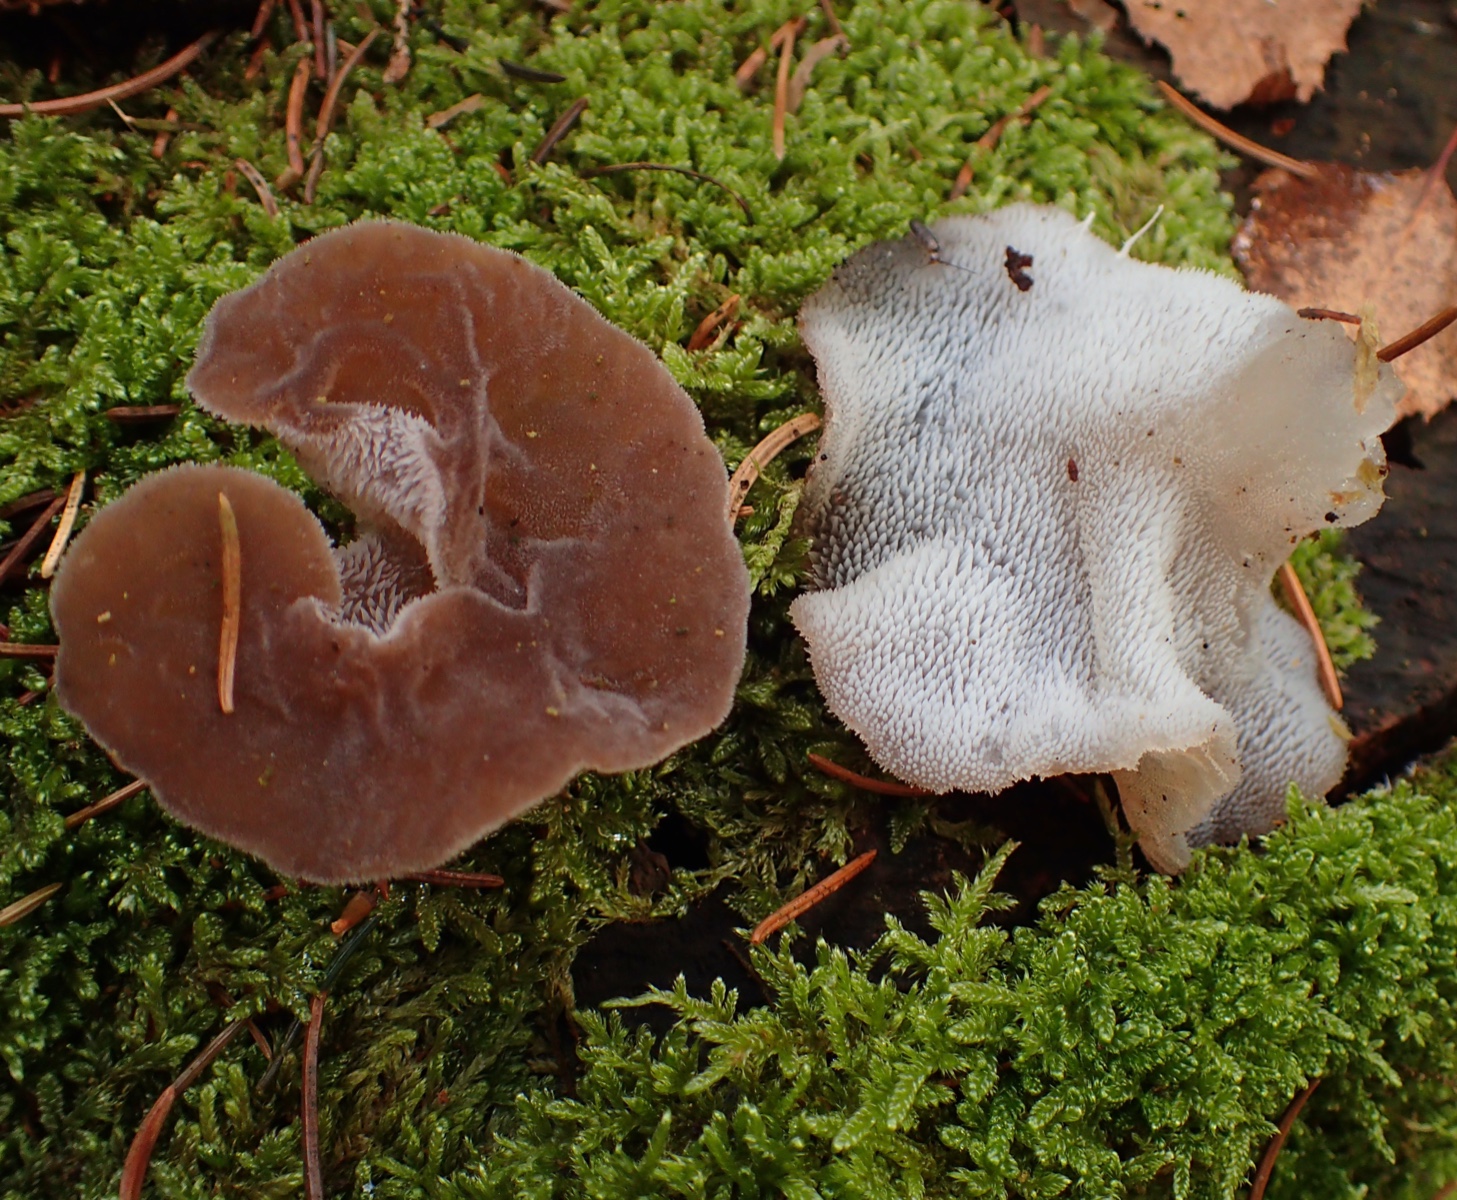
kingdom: Fungi
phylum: Basidiomycota
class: Agaricomycetes
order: Auriculariales
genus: Pseudohydnum
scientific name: Pseudohydnum gelatinosum
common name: bævretand
